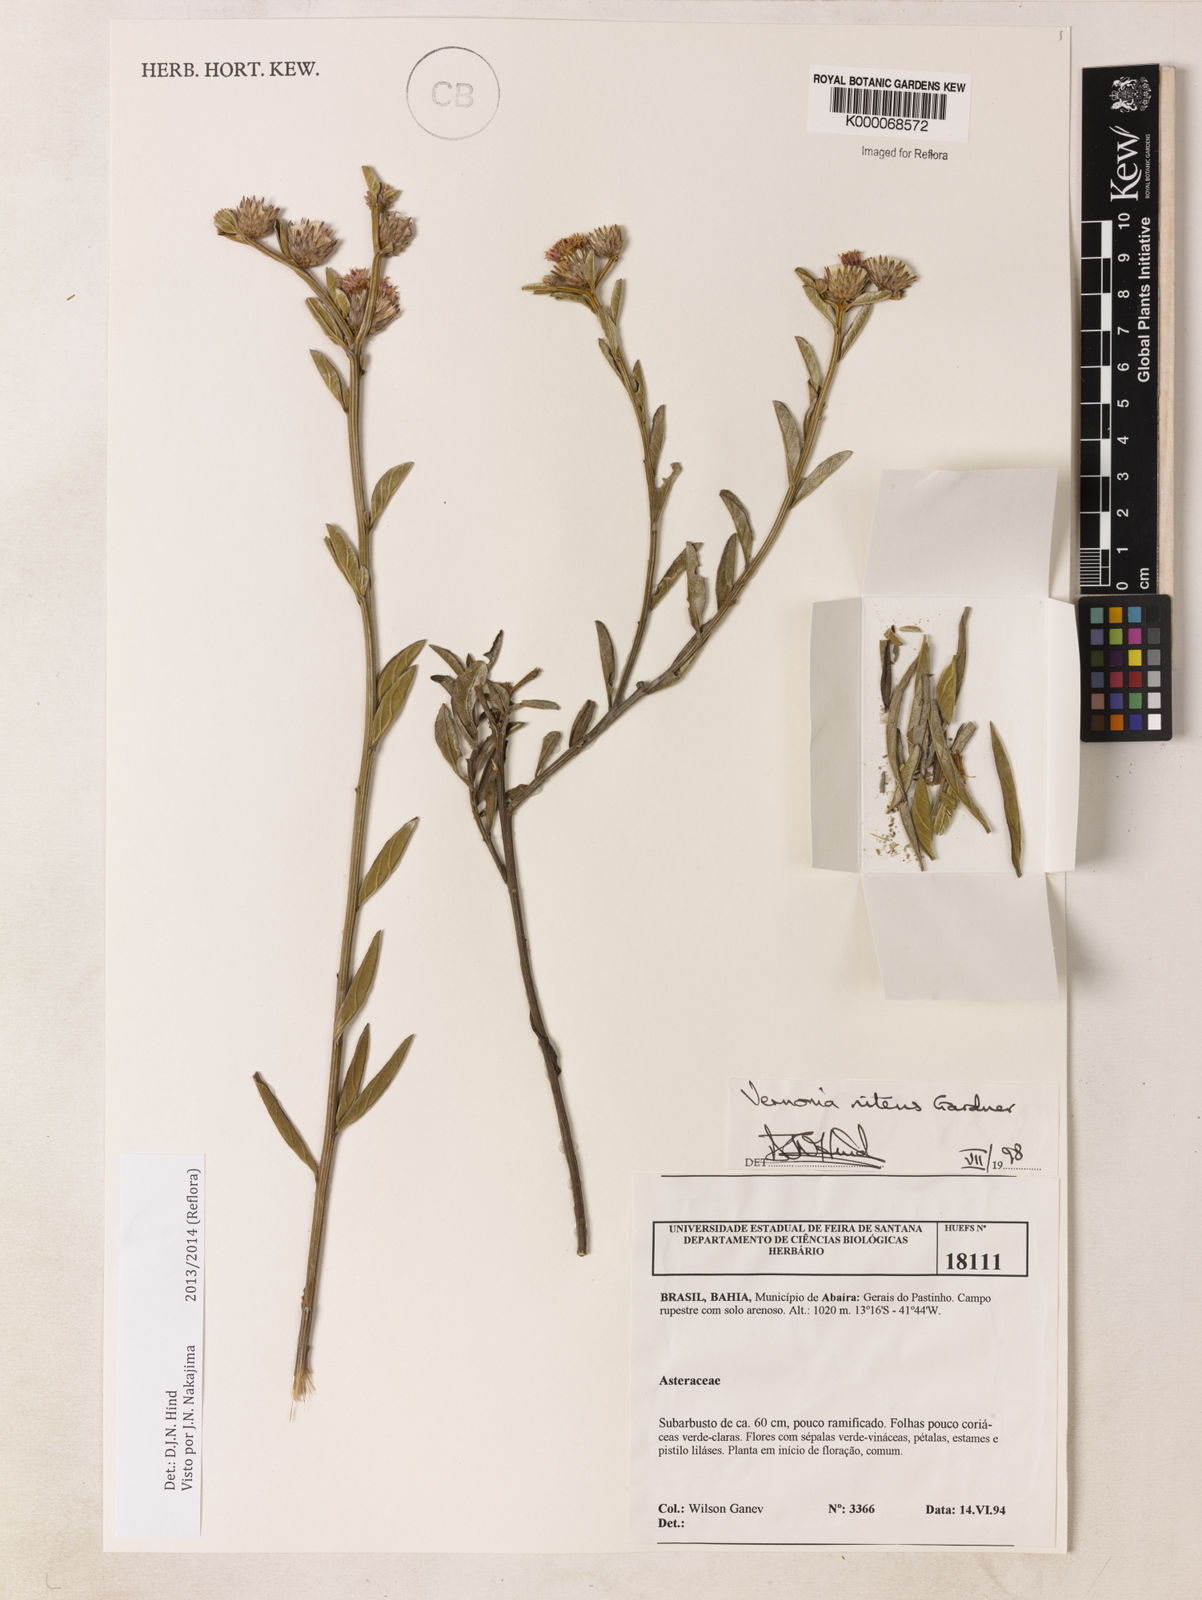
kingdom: Plantae
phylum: Tracheophyta
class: Magnoliopsida
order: Asterales
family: Asteraceae
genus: Lepidaploa
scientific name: Lepidaploa nitens
